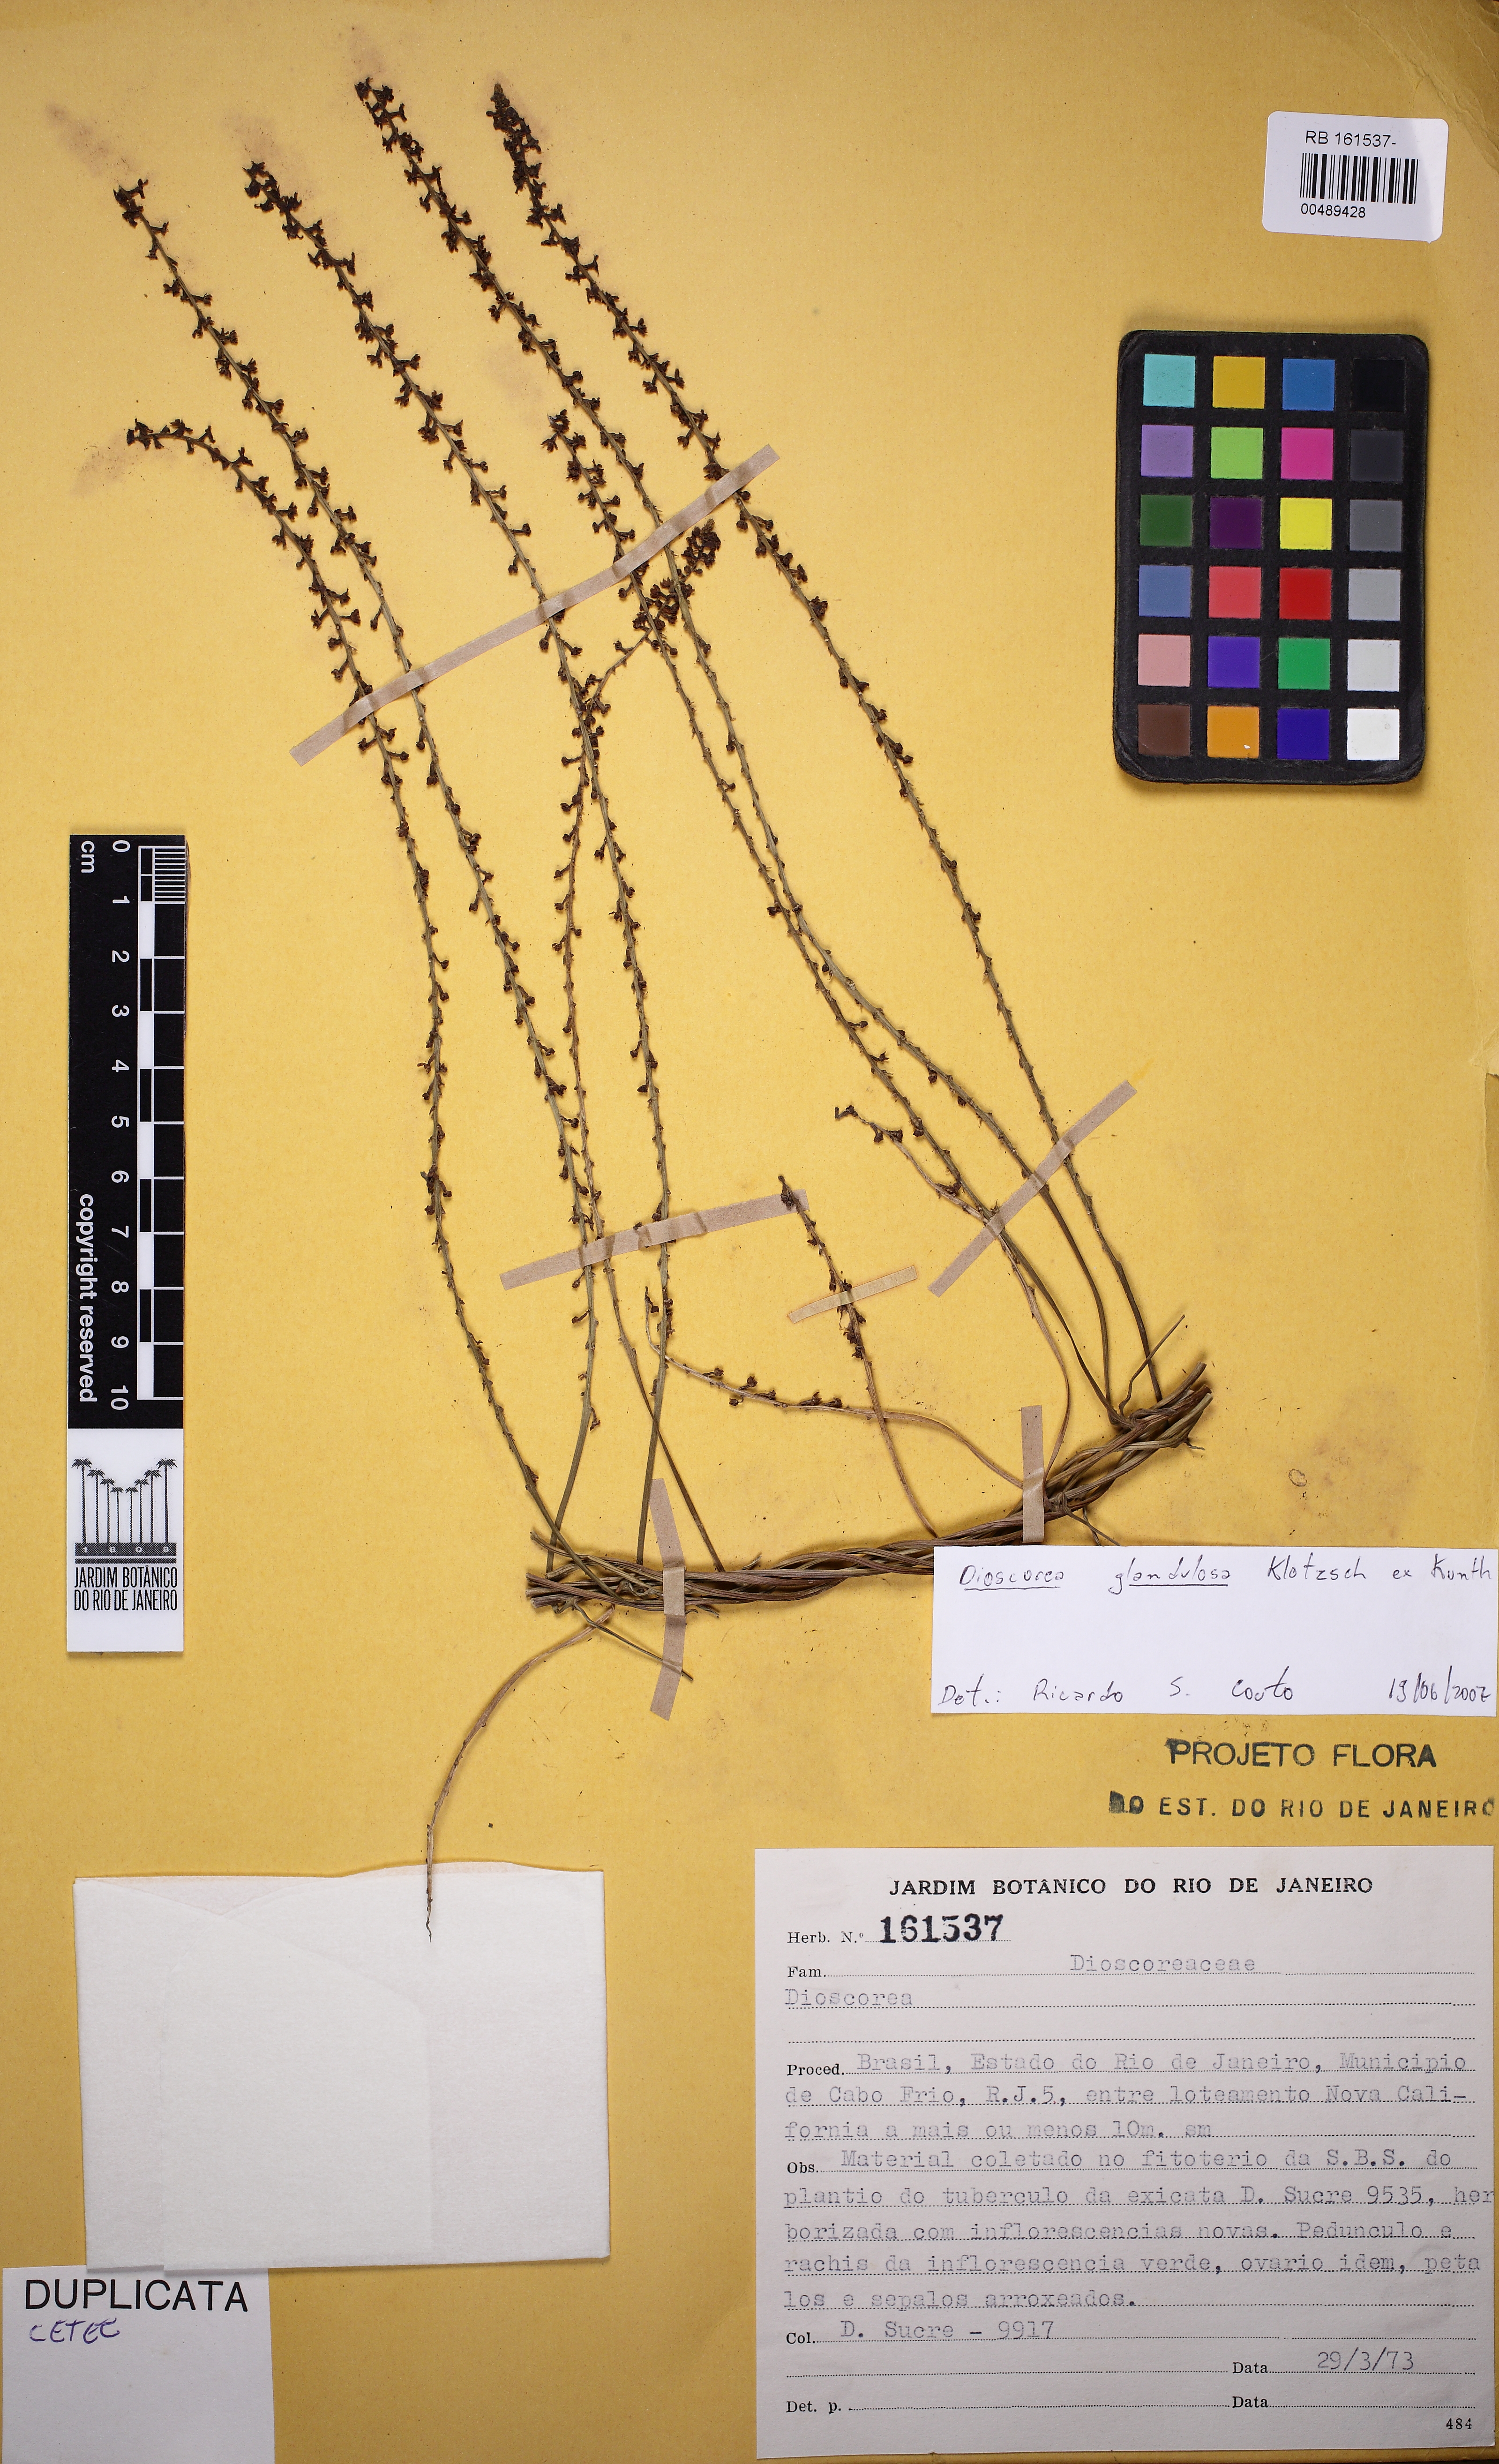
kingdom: Plantae
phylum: Tracheophyta
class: Liliopsida
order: Dioscoreales
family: Dioscoreaceae
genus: Dioscorea
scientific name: Dioscorea glandulosa
